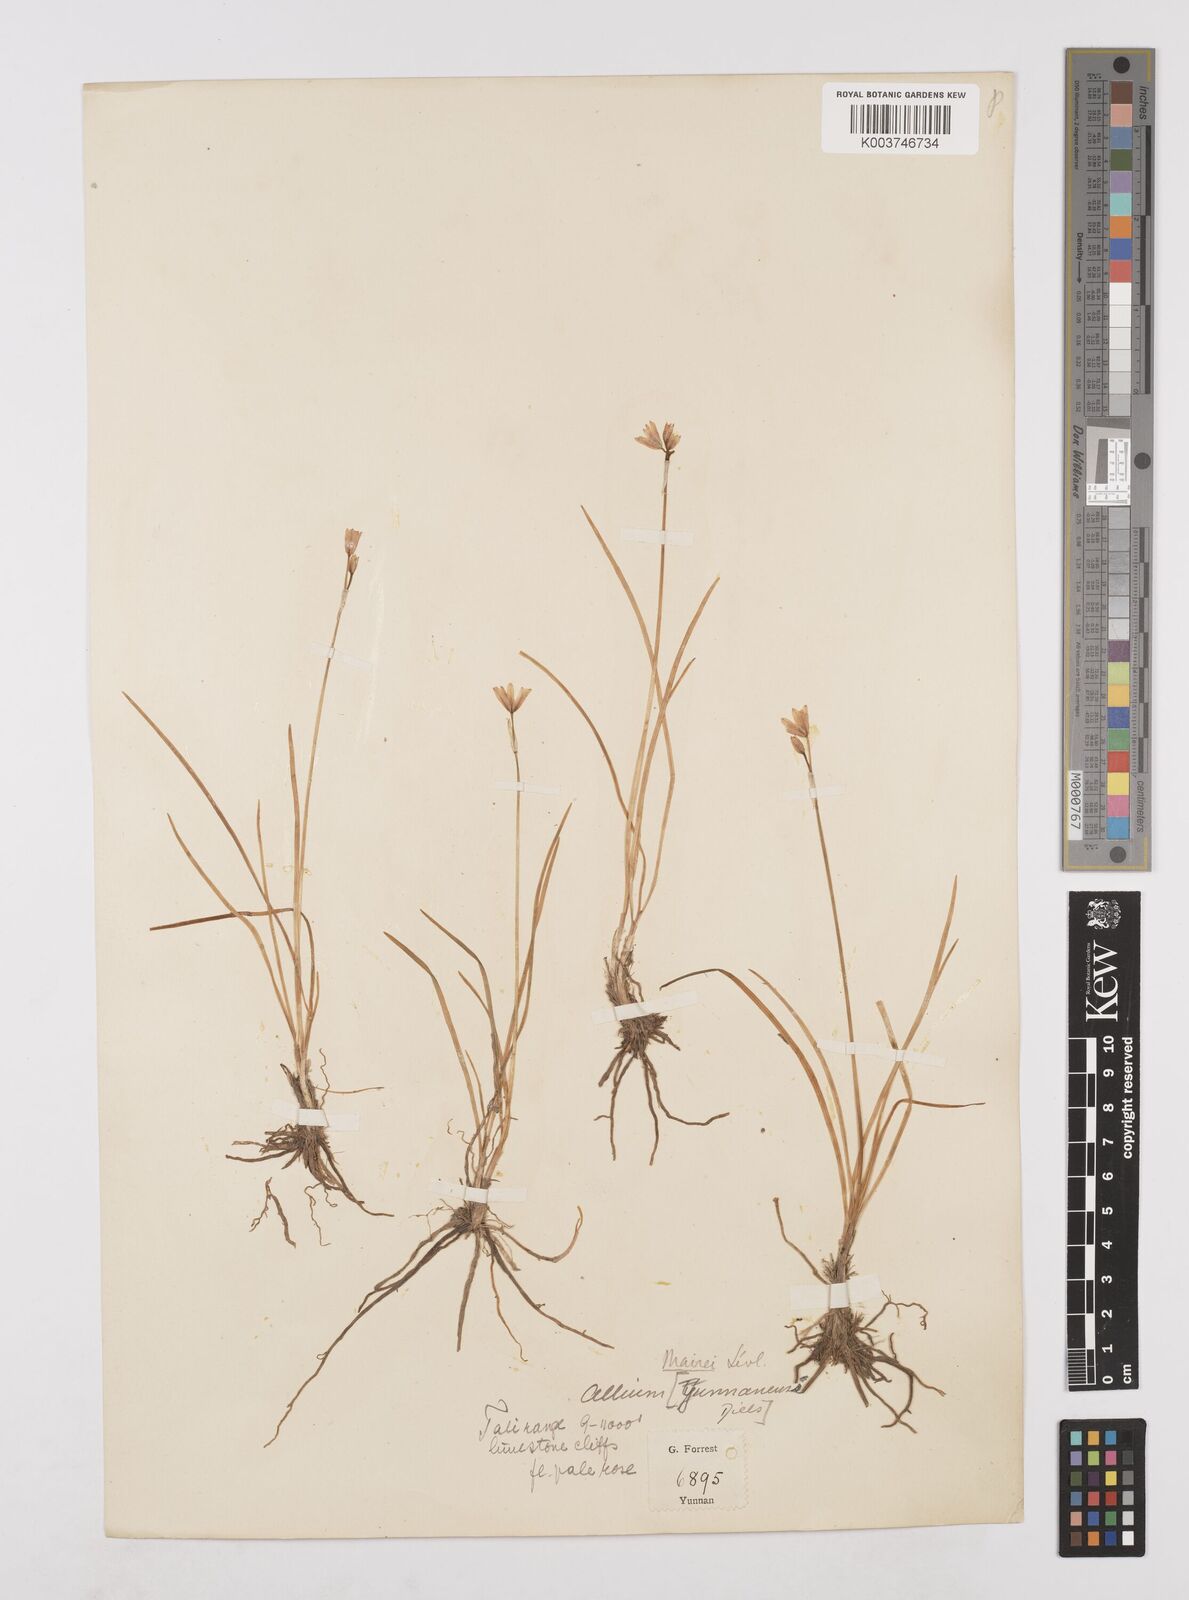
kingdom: Plantae
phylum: Tracheophyta
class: Liliopsida
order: Asparagales
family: Amaryllidaceae
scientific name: Amaryllidaceae
